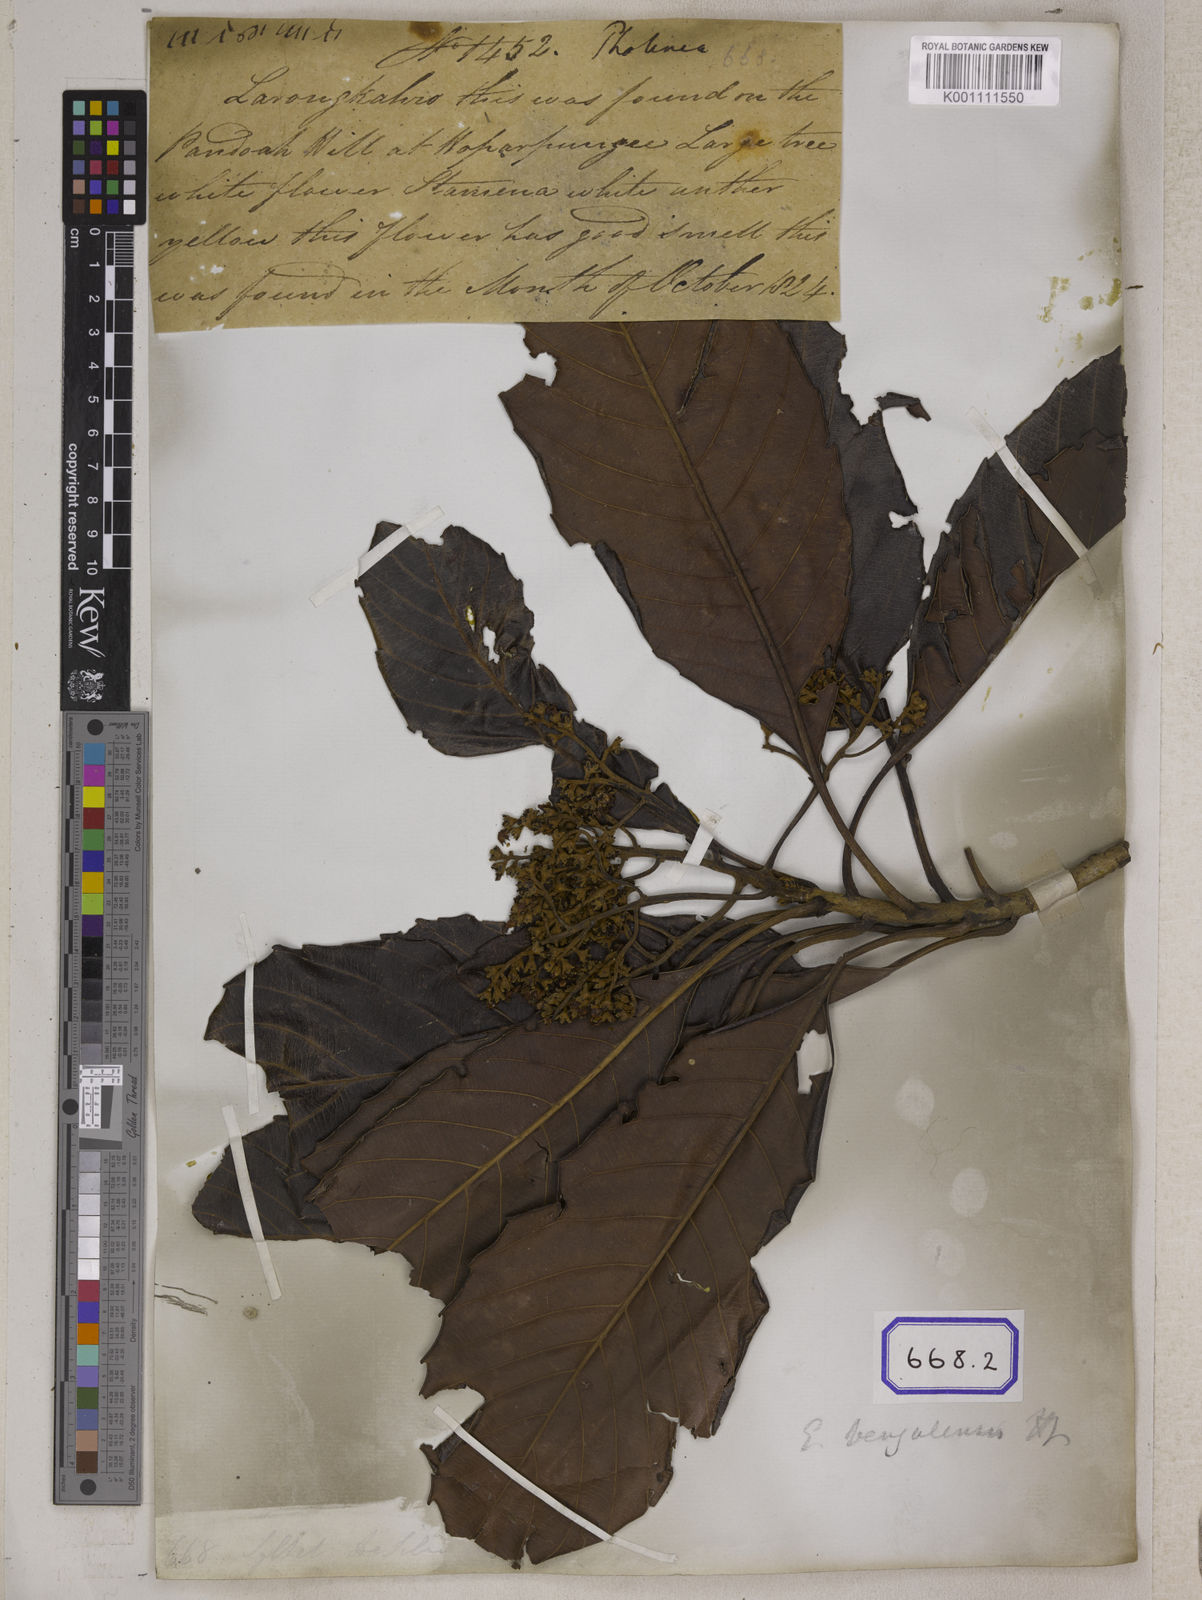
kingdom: Plantae
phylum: Tracheophyta
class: Magnoliopsida
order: Rosales
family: Rosaceae
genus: Rhaphiolepis
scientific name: Rhaphiolepis dubia
